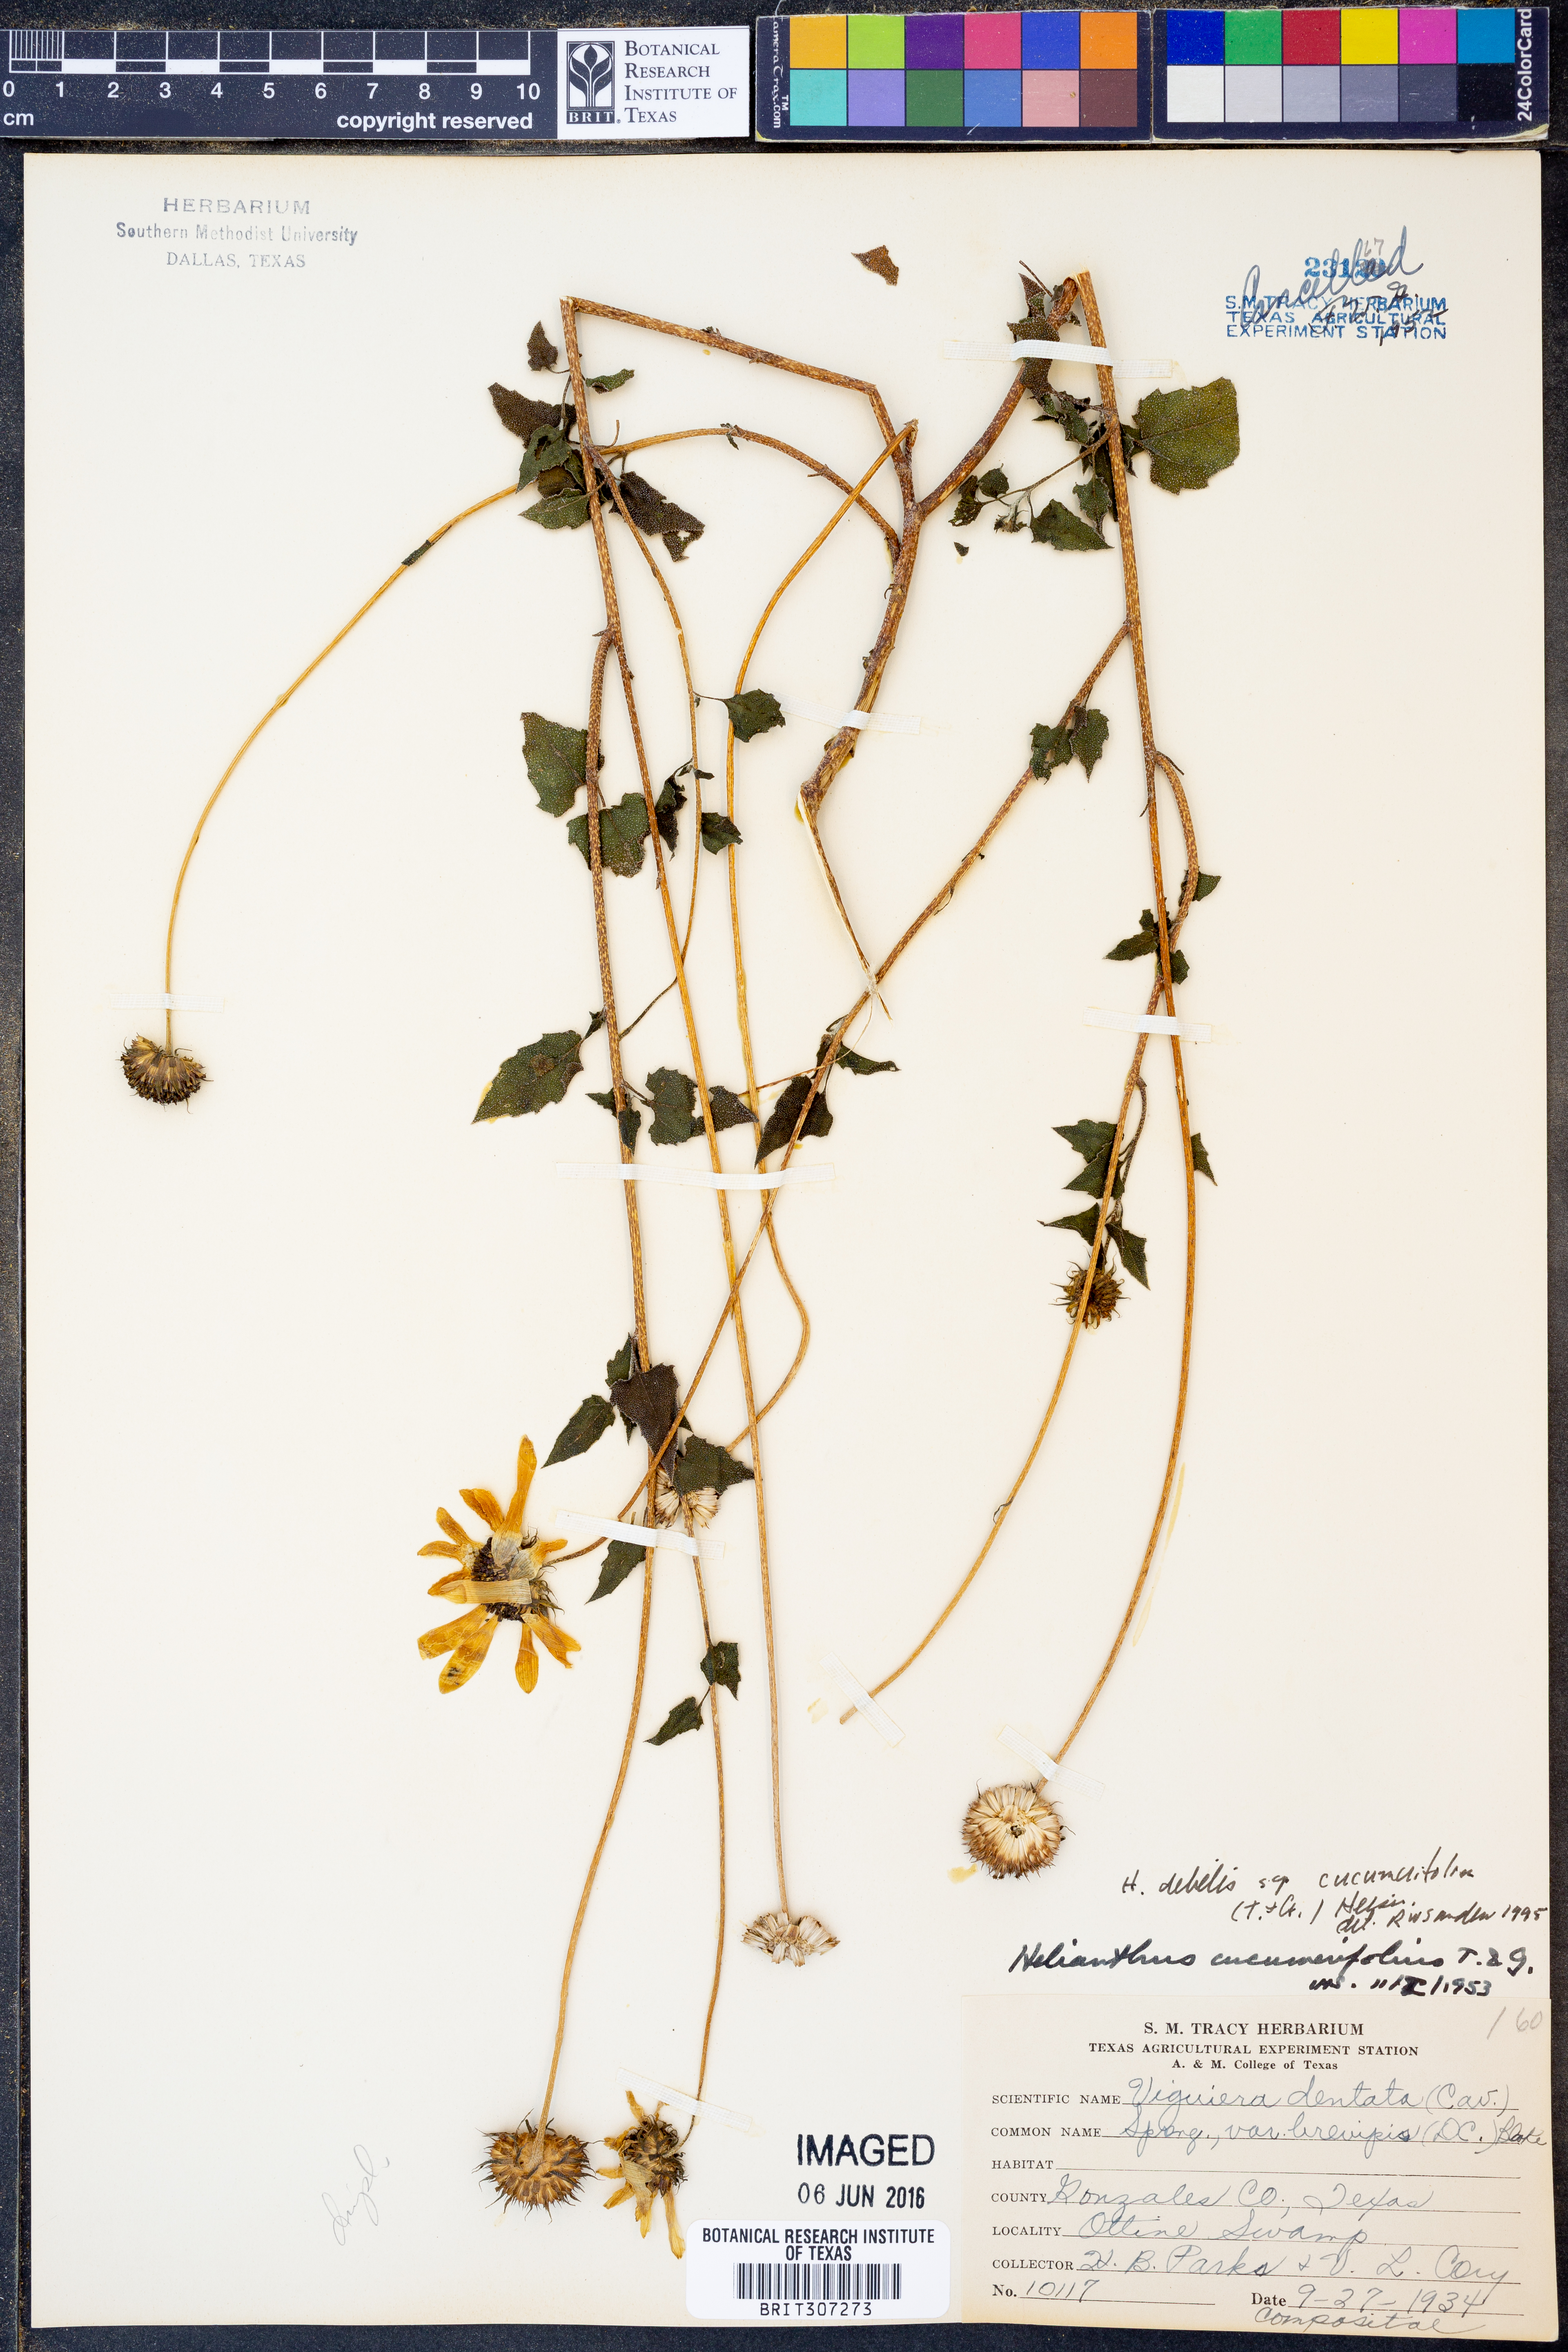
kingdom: Plantae
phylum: Tracheophyta
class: Magnoliopsida
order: Asterales
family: Asteraceae
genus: Helianthus
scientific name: Helianthus debilis
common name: Weak sunflower
